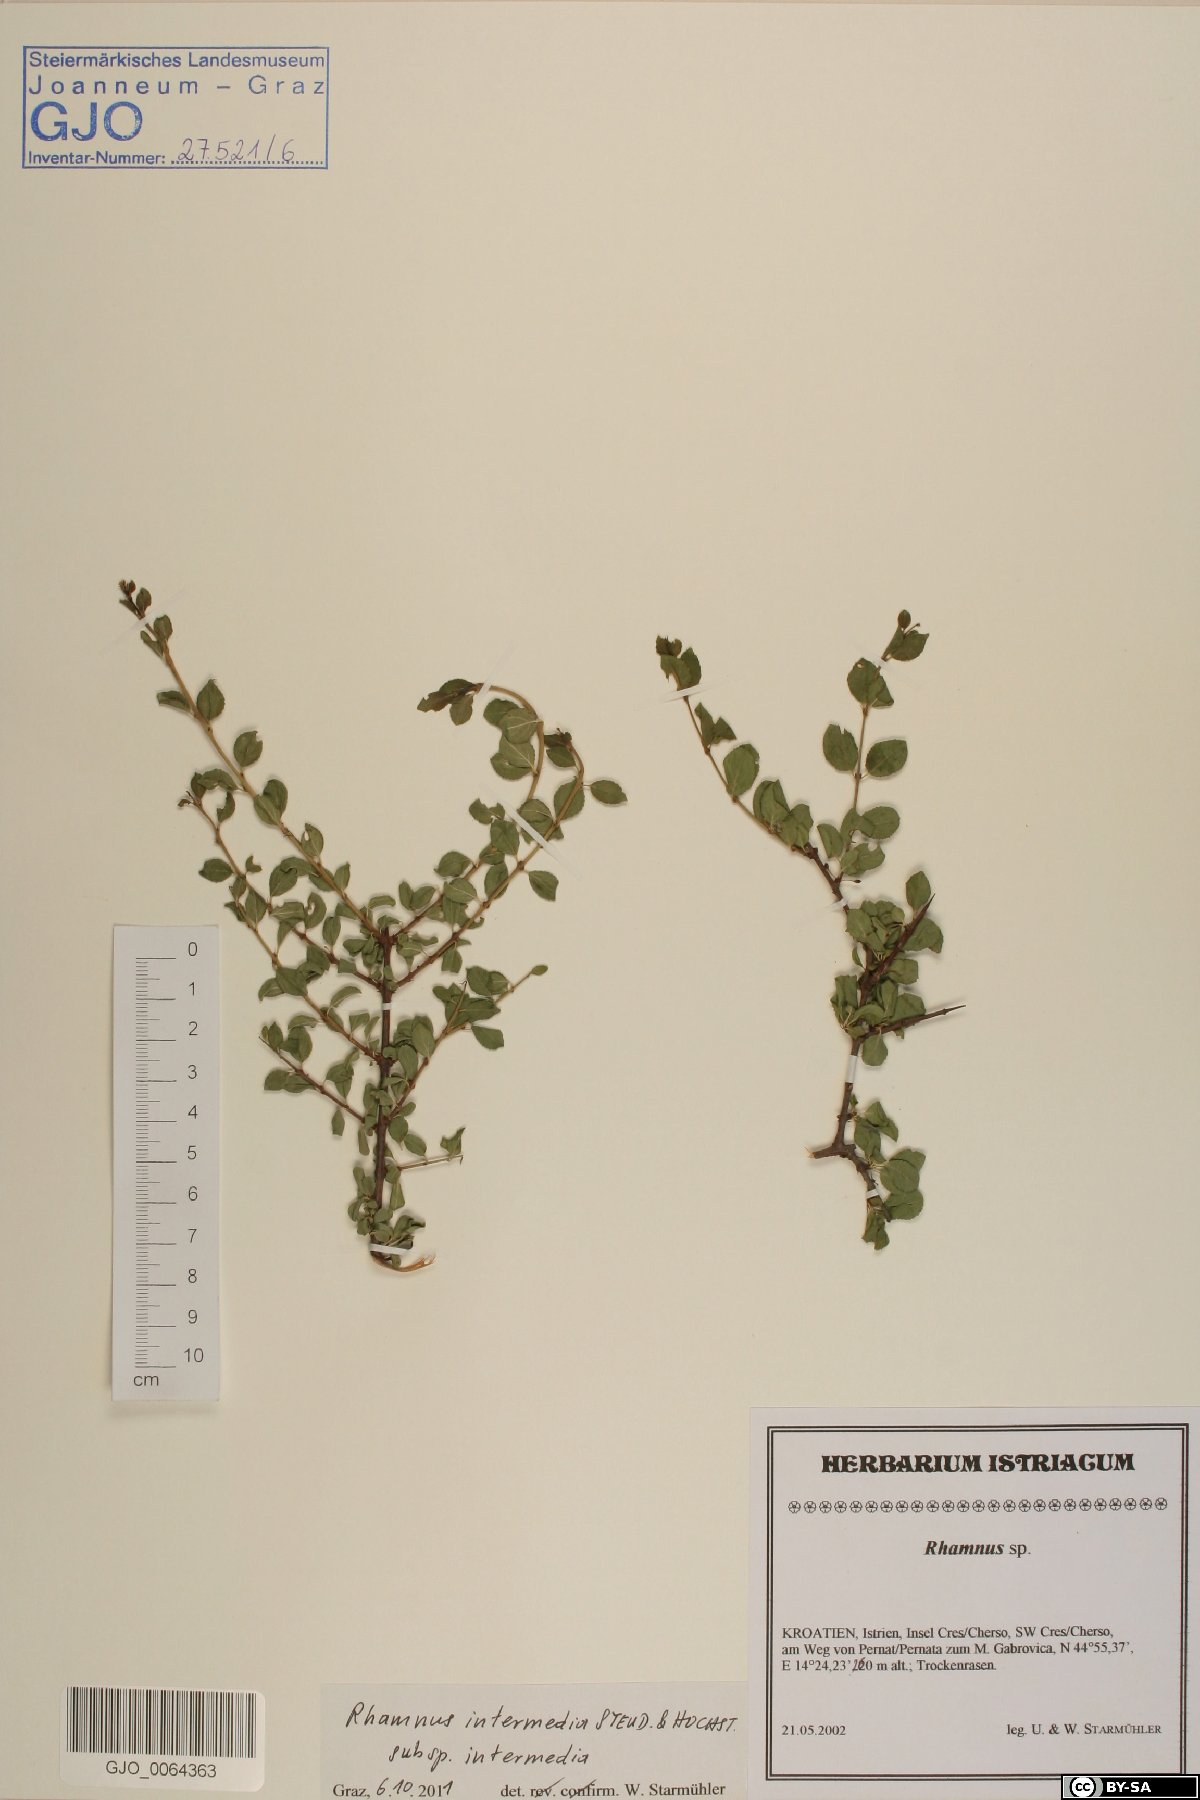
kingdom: Plantae
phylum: Tracheophyta
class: Magnoliopsida
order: Rosales
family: Rhamnaceae
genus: Rhamnus
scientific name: Rhamnus intermedia
